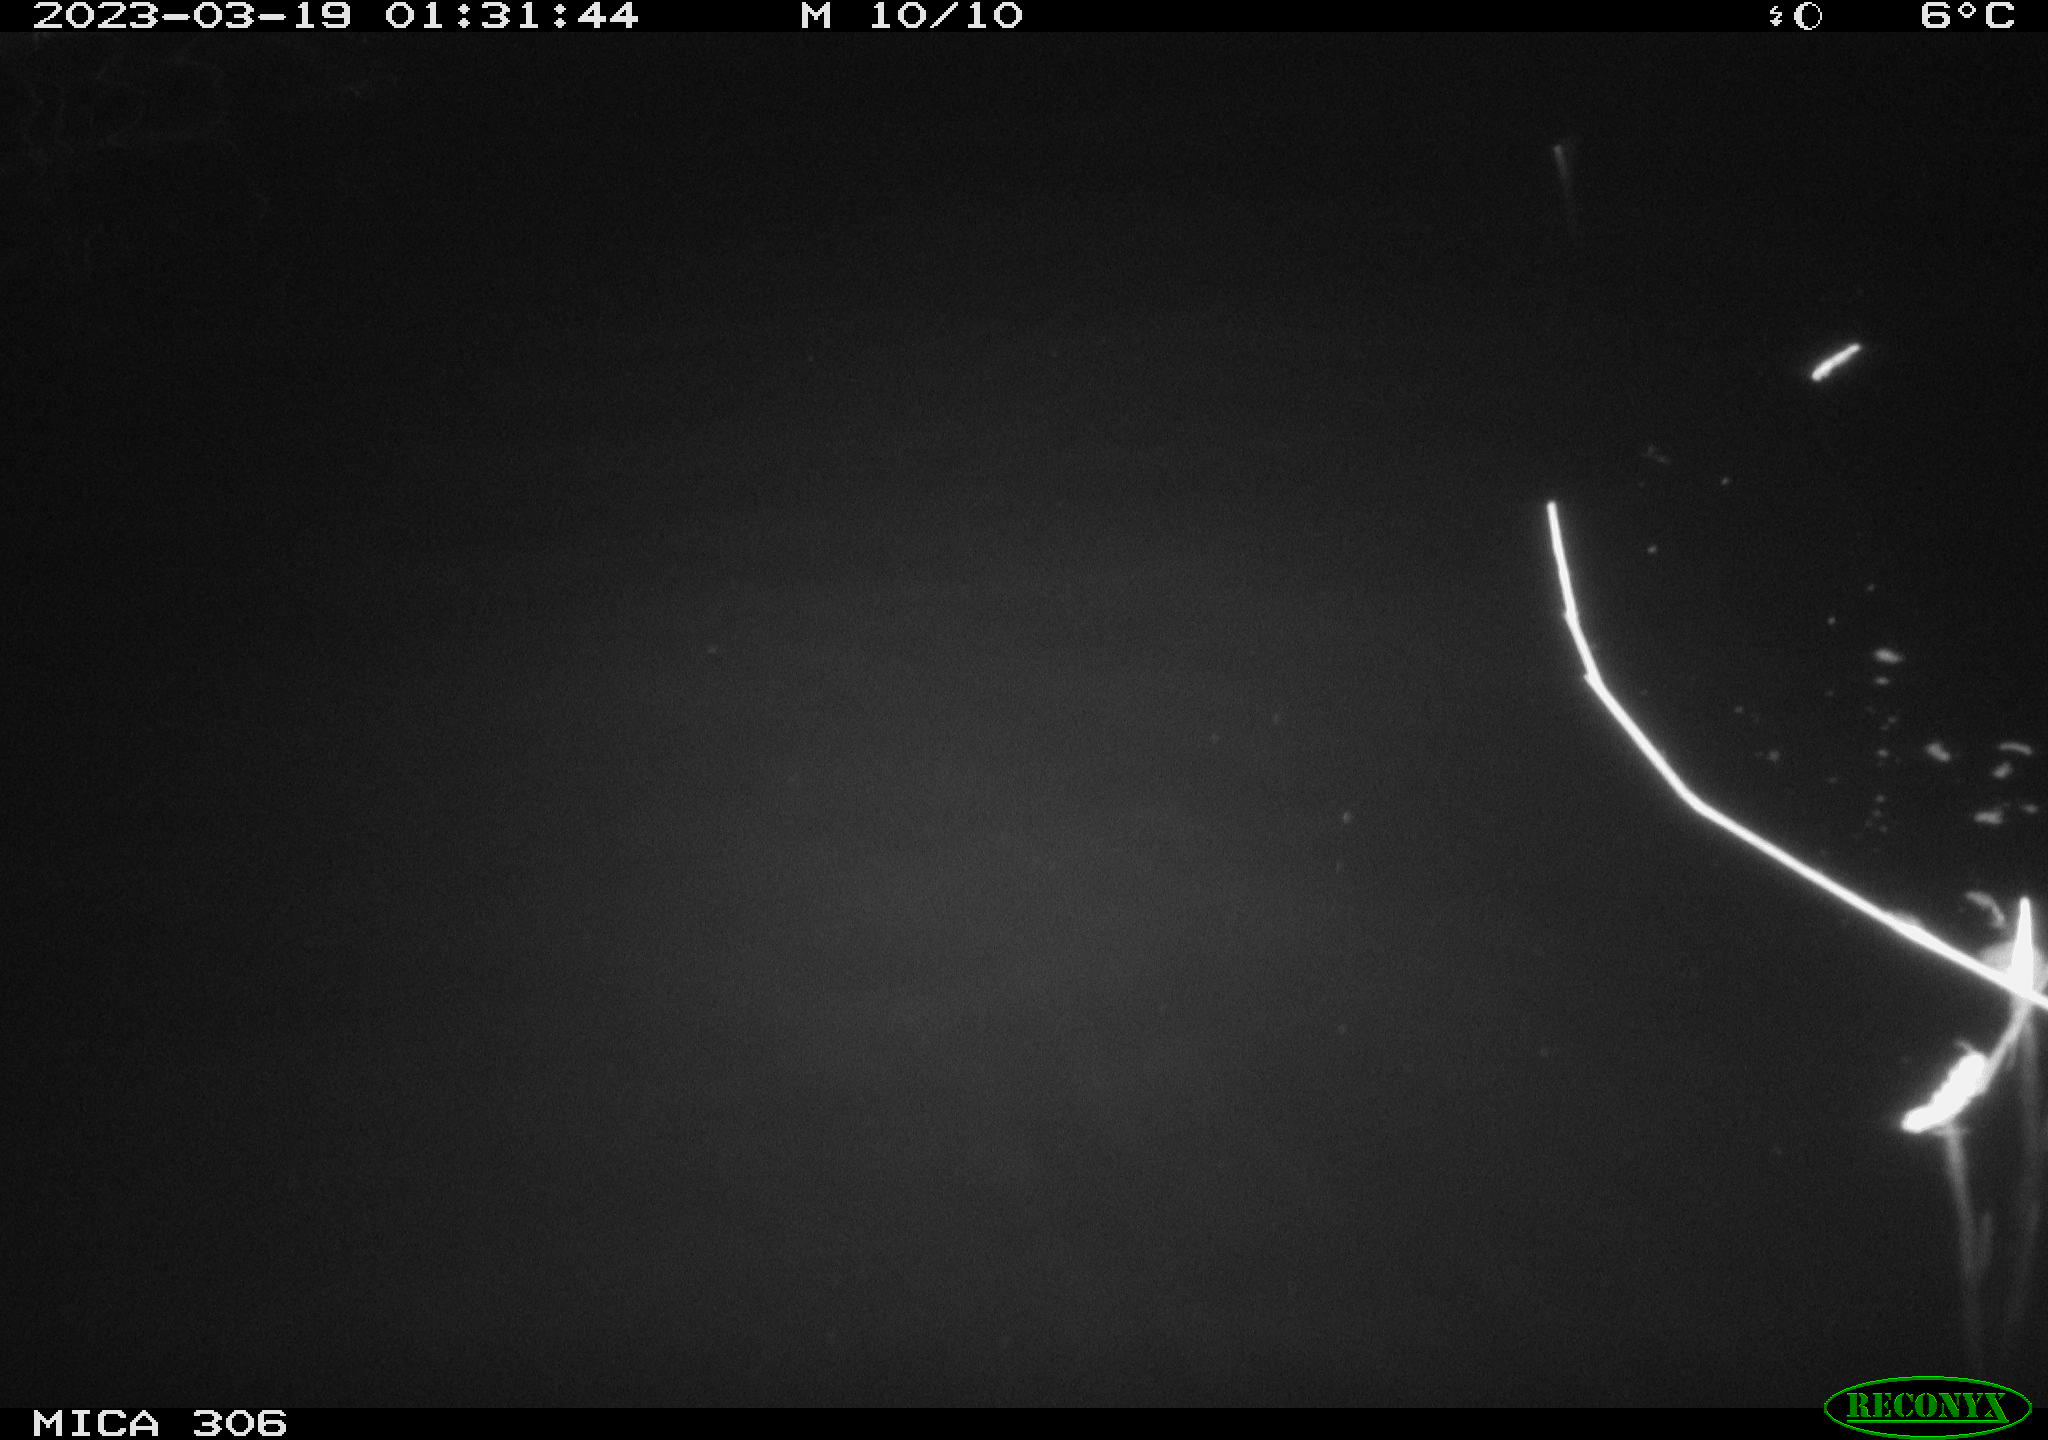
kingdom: Animalia
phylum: Chordata
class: Mammalia
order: Rodentia
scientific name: Rodentia
